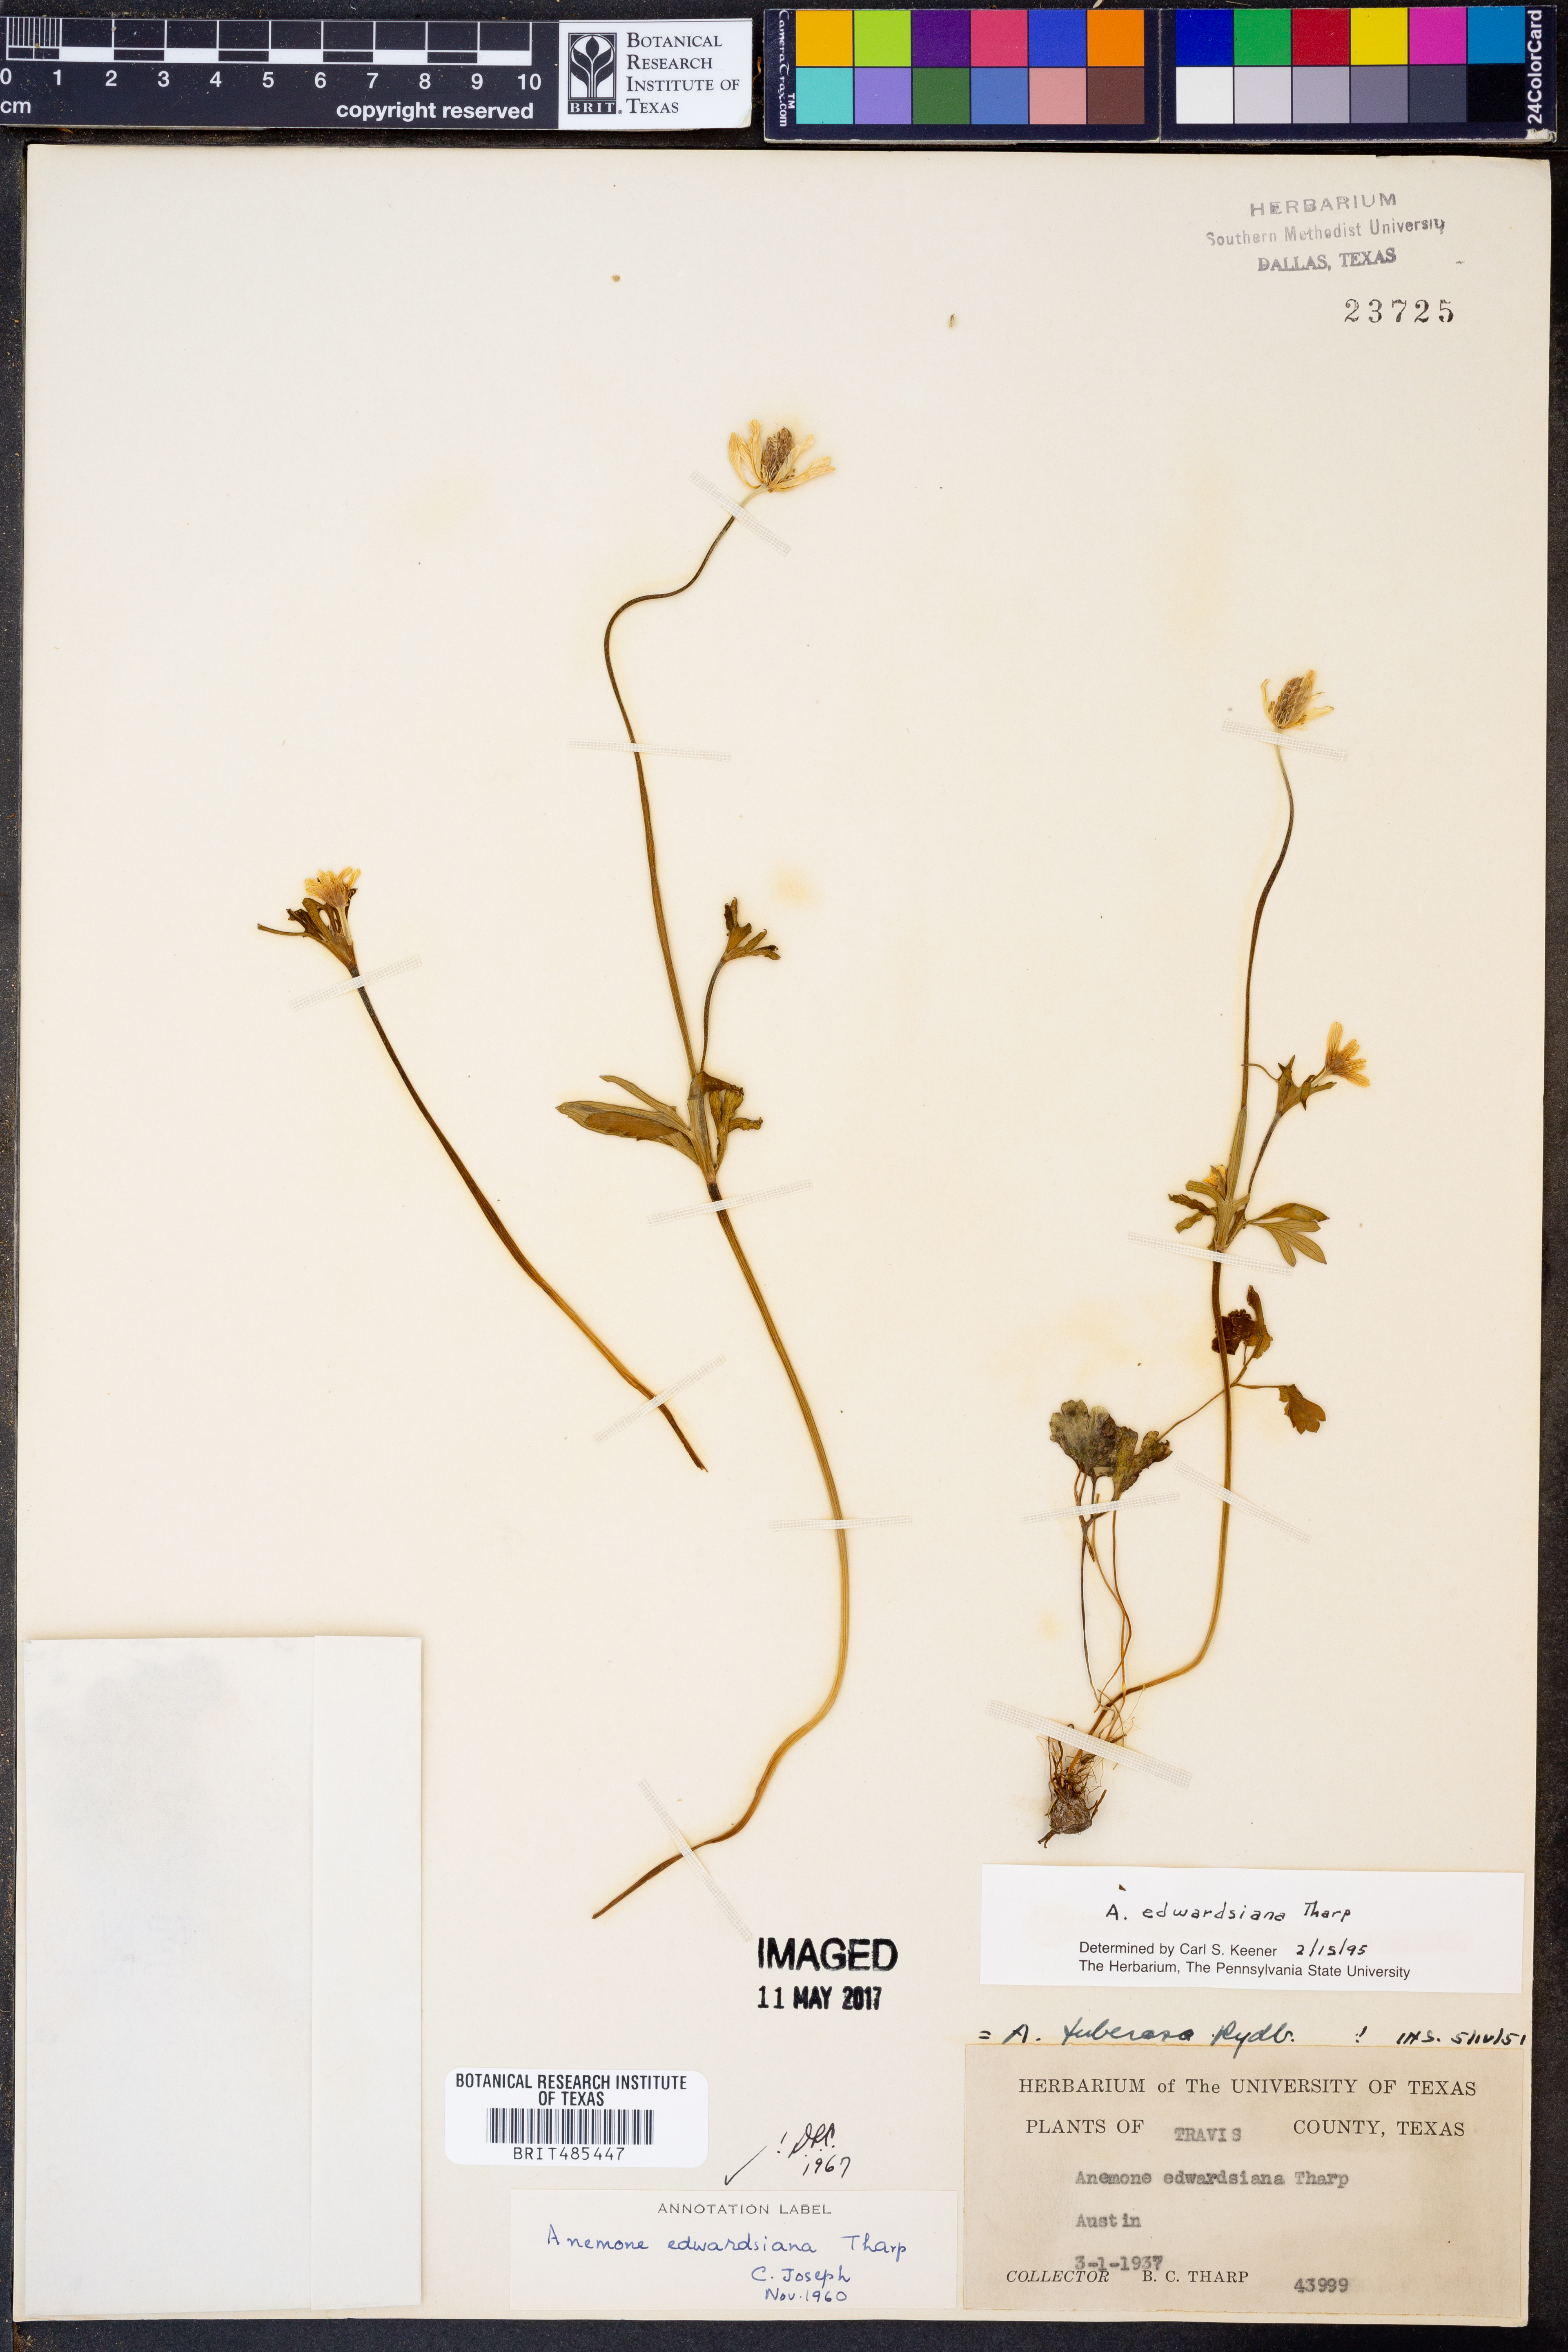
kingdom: Plantae
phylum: Tracheophyta
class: Magnoliopsida
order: Ranunculales
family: Ranunculaceae
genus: Anemone
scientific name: Anemone edwardsiana
